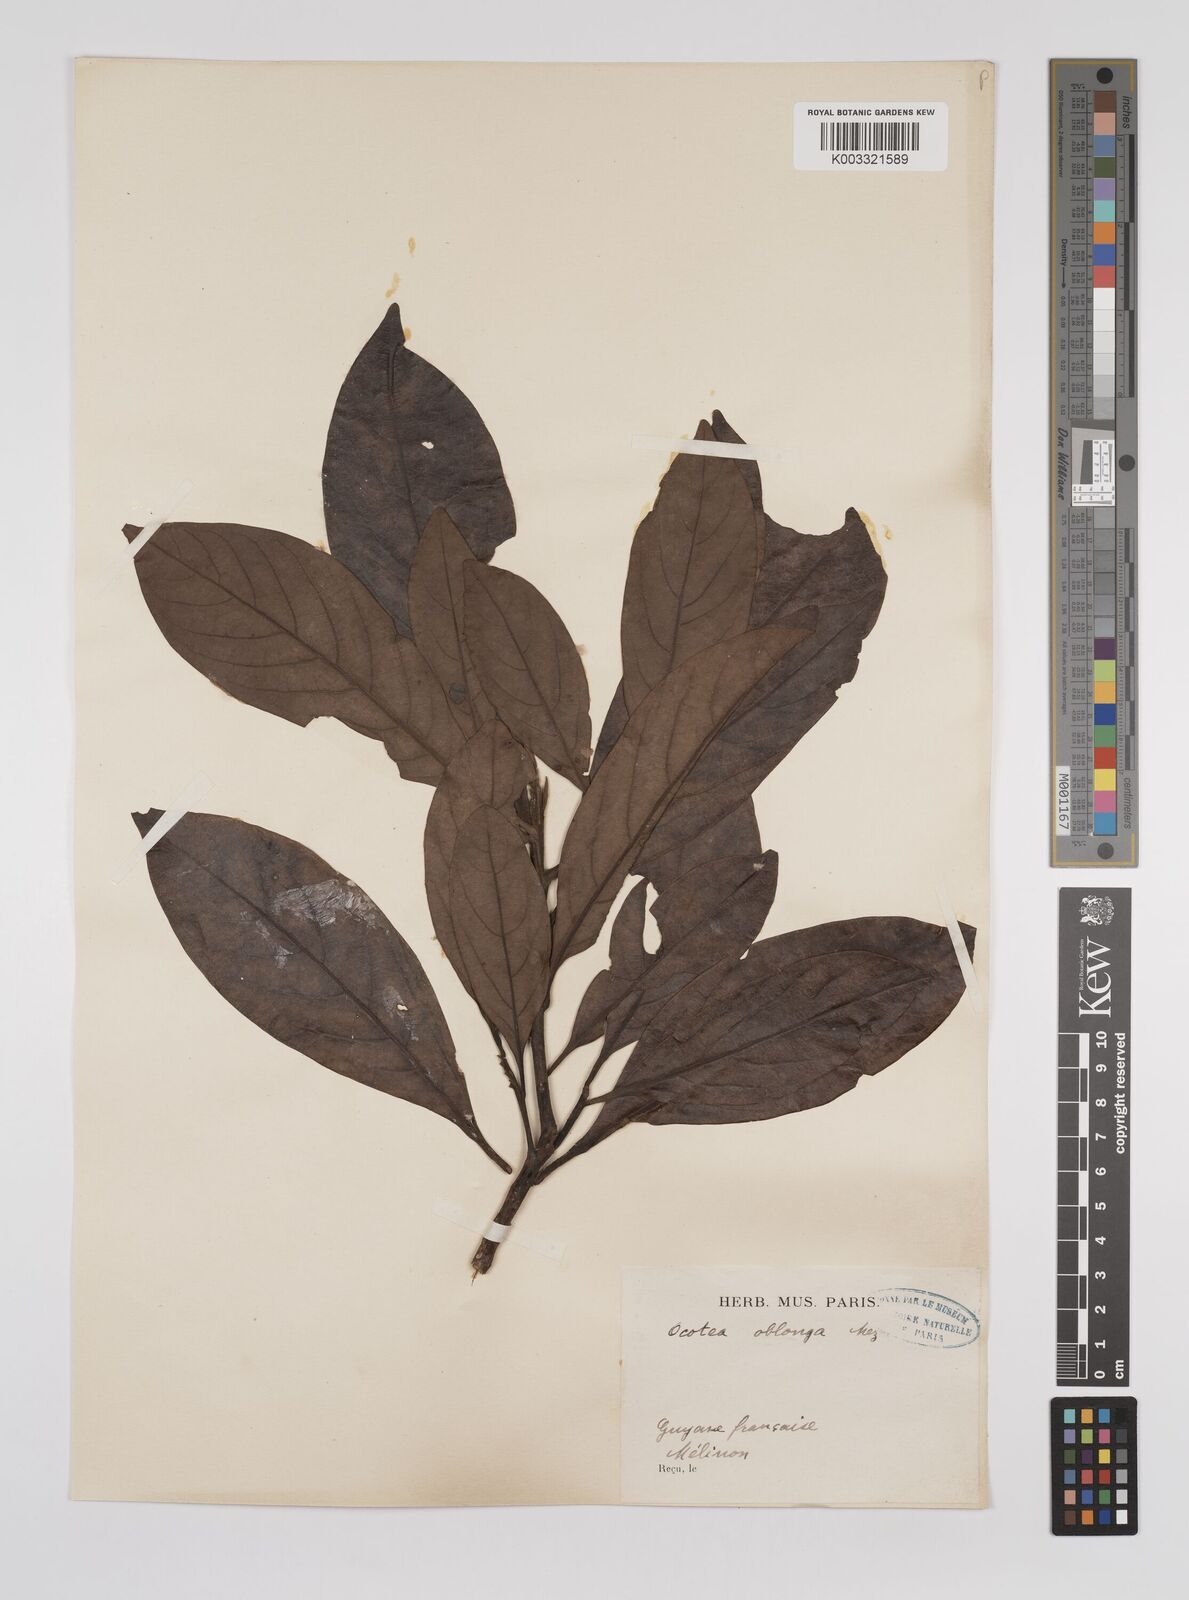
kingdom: Plantae
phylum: Tracheophyta
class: Magnoliopsida
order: Laurales
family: Lauraceae
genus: Ocotea
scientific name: Ocotea oblonga
